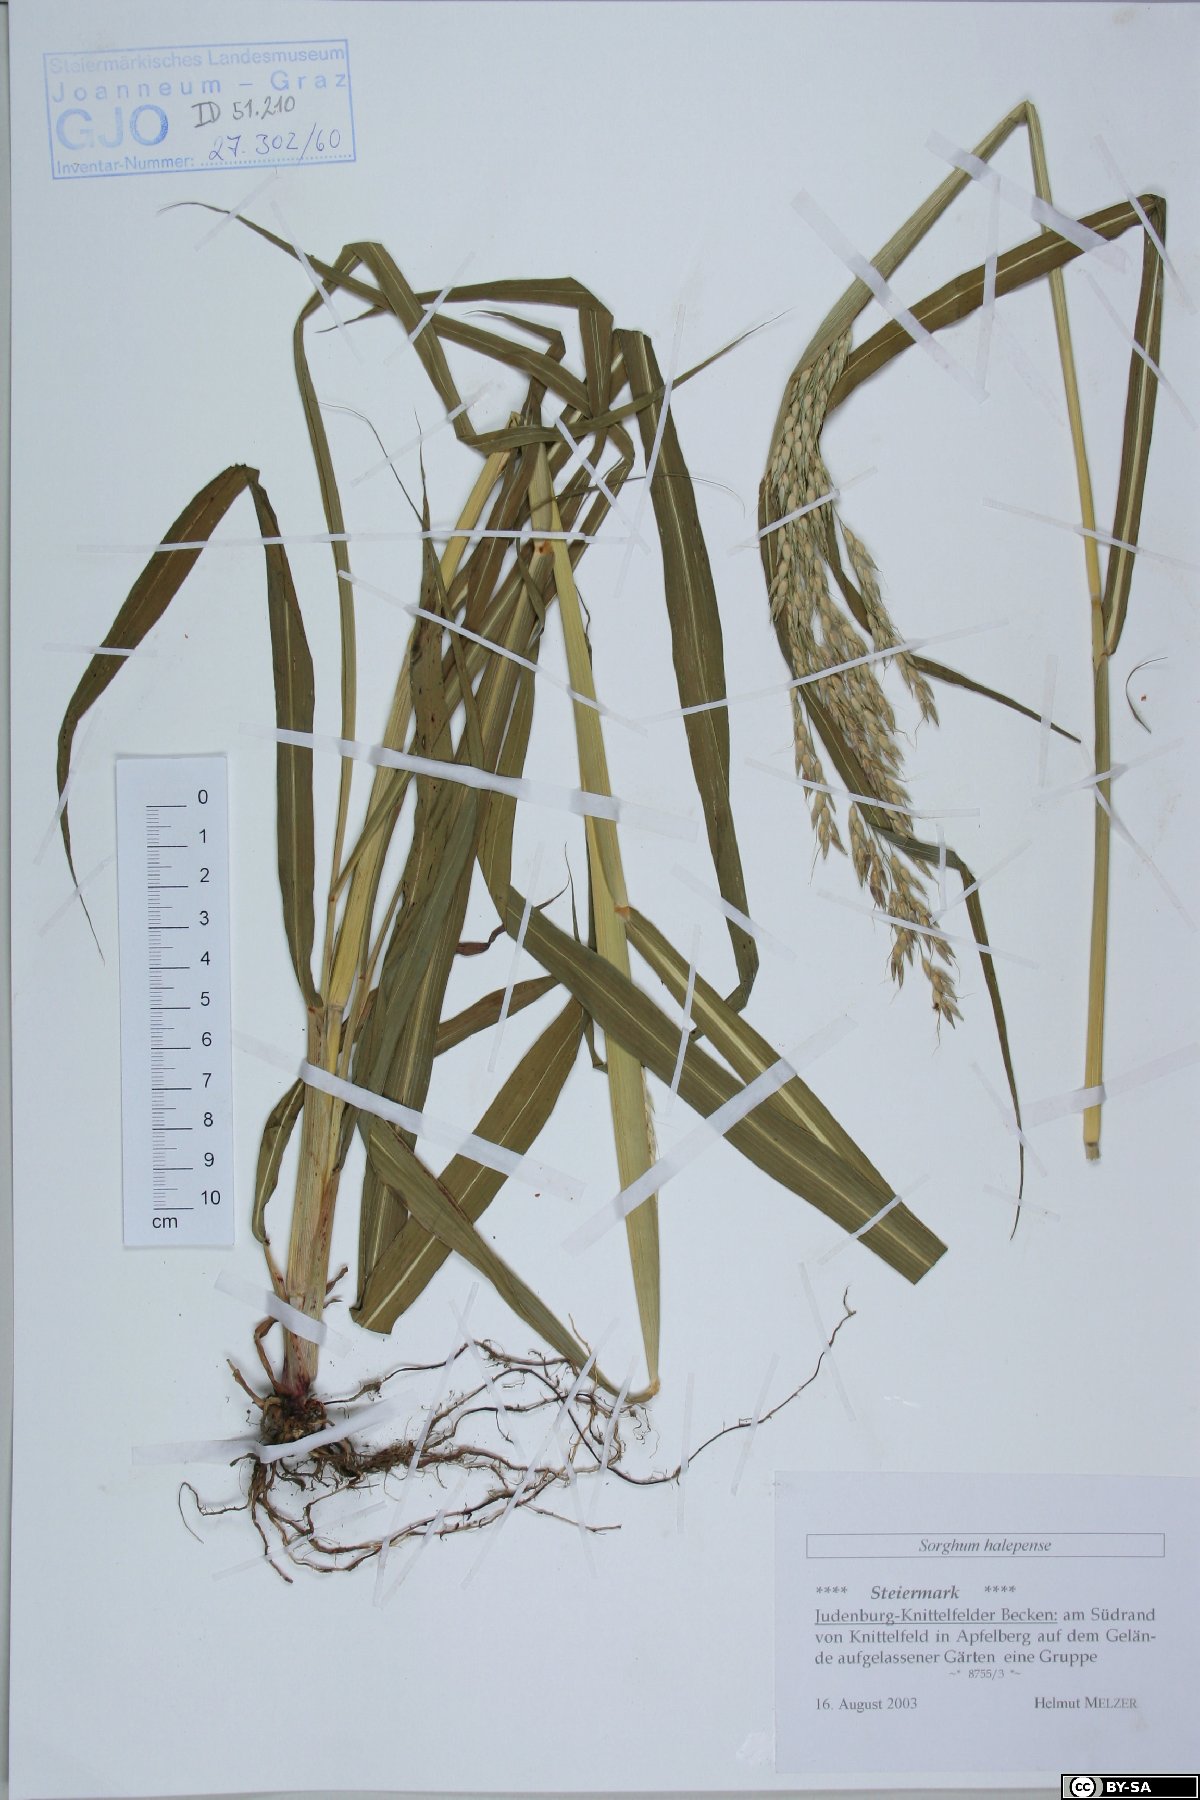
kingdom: Plantae
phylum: Tracheophyta
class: Liliopsida
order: Poales
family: Poaceae
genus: Sorghum
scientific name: Sorghum halepense
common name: Johnson-grass
